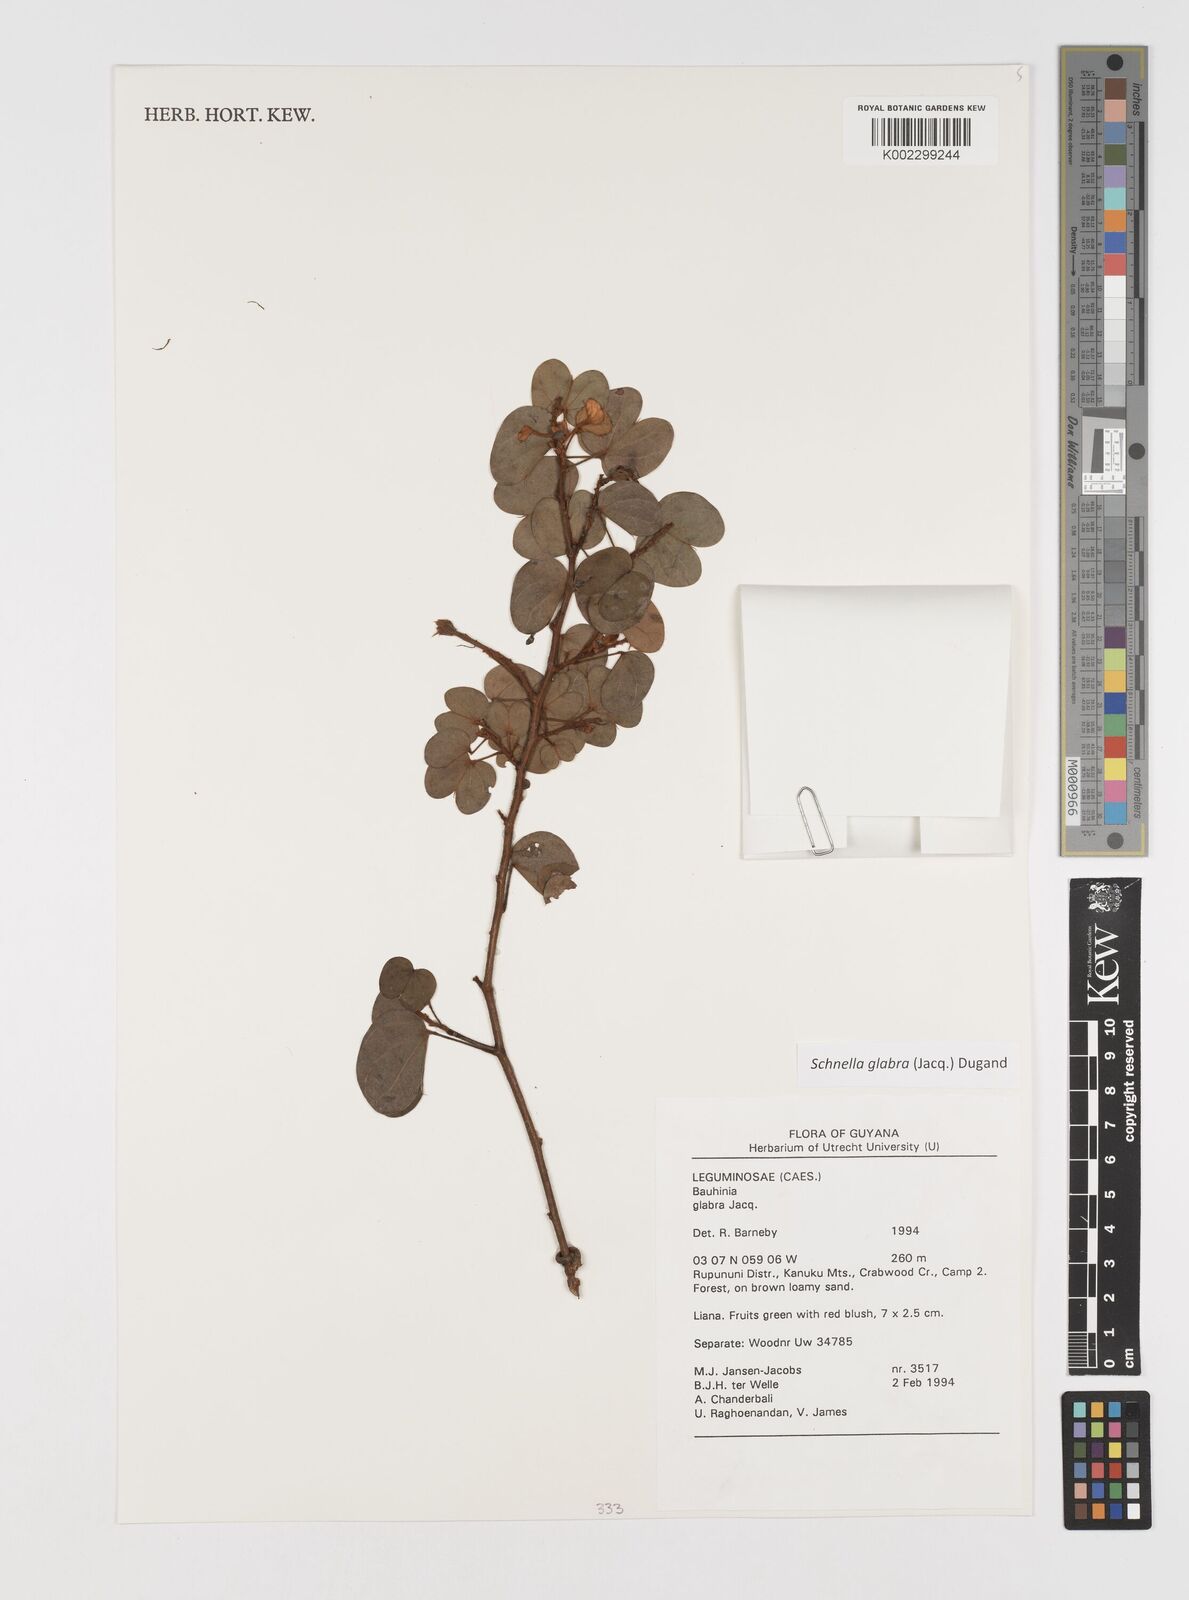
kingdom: Plantae
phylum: Tracheophyta
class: Magnoliopsida
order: Fabales
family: Fabaceae
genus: Schnella
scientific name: Schnella glabra
